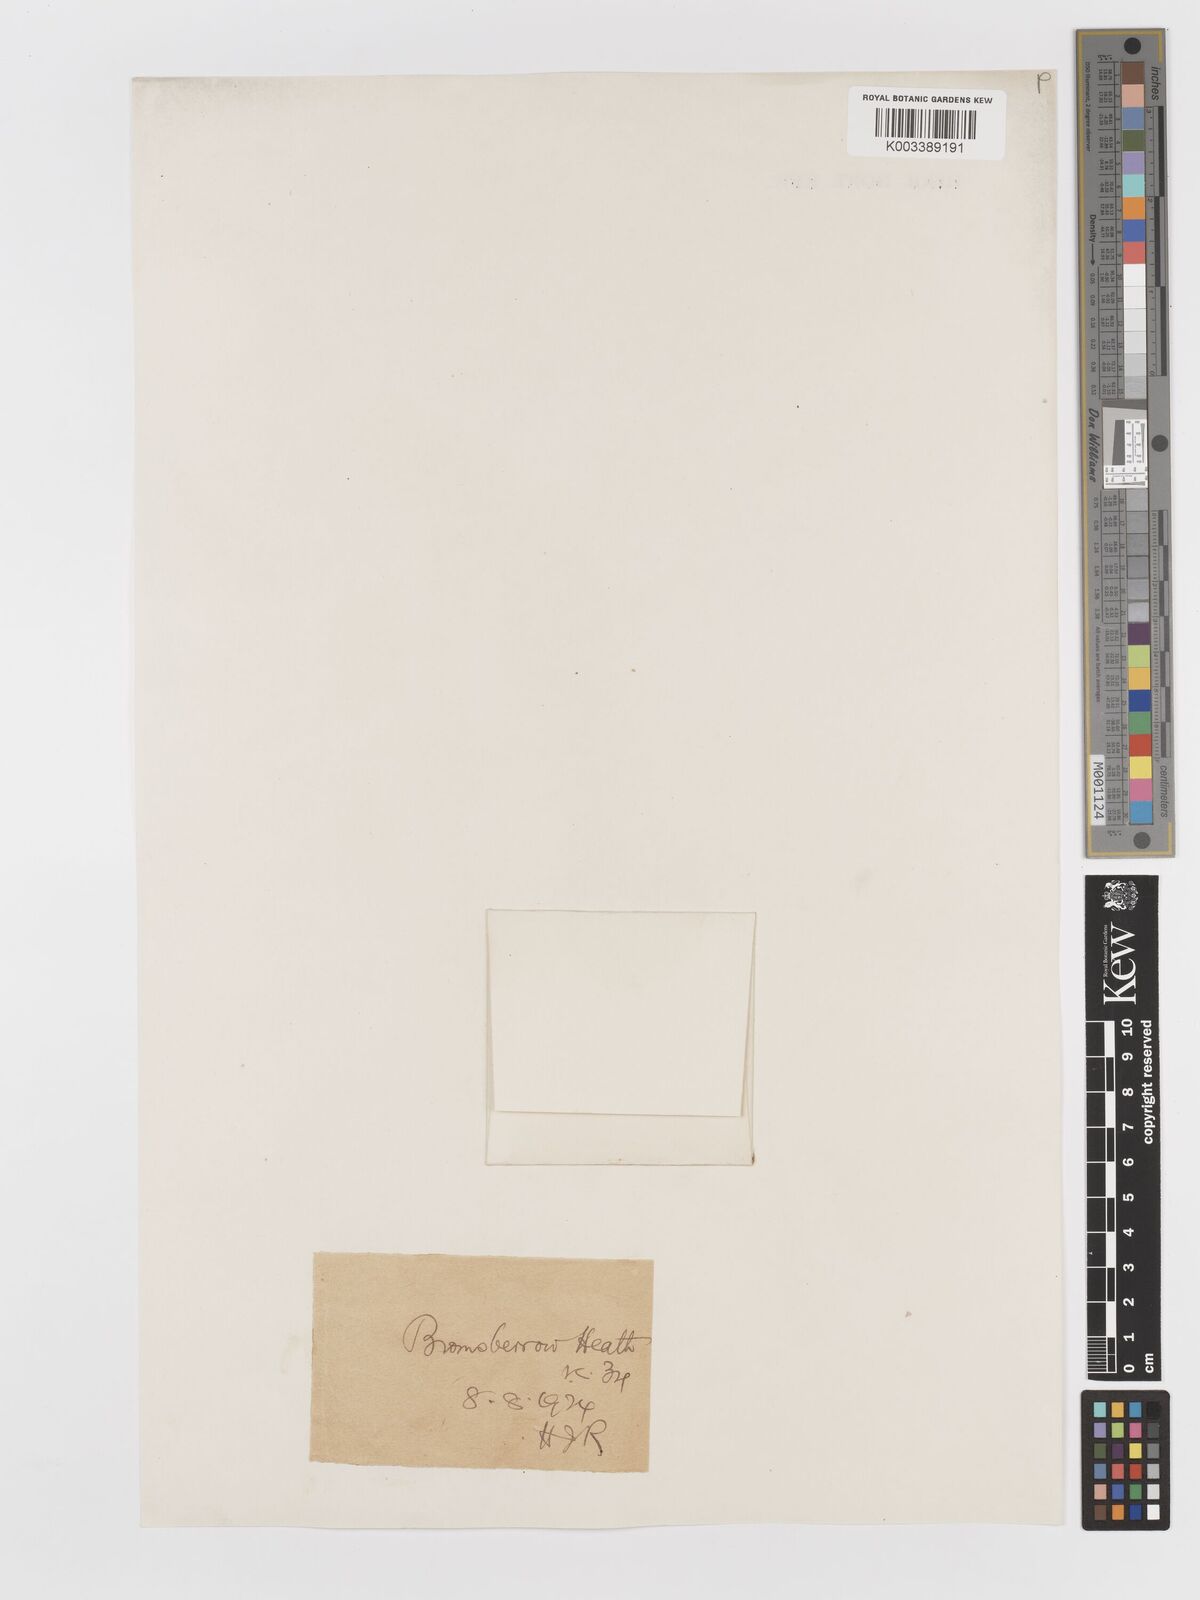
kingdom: Plantae
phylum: Tracheophyta
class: Liliopsida
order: Poales
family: Poaceae
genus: Aira
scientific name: Aira praecox
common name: Early hair-grass
